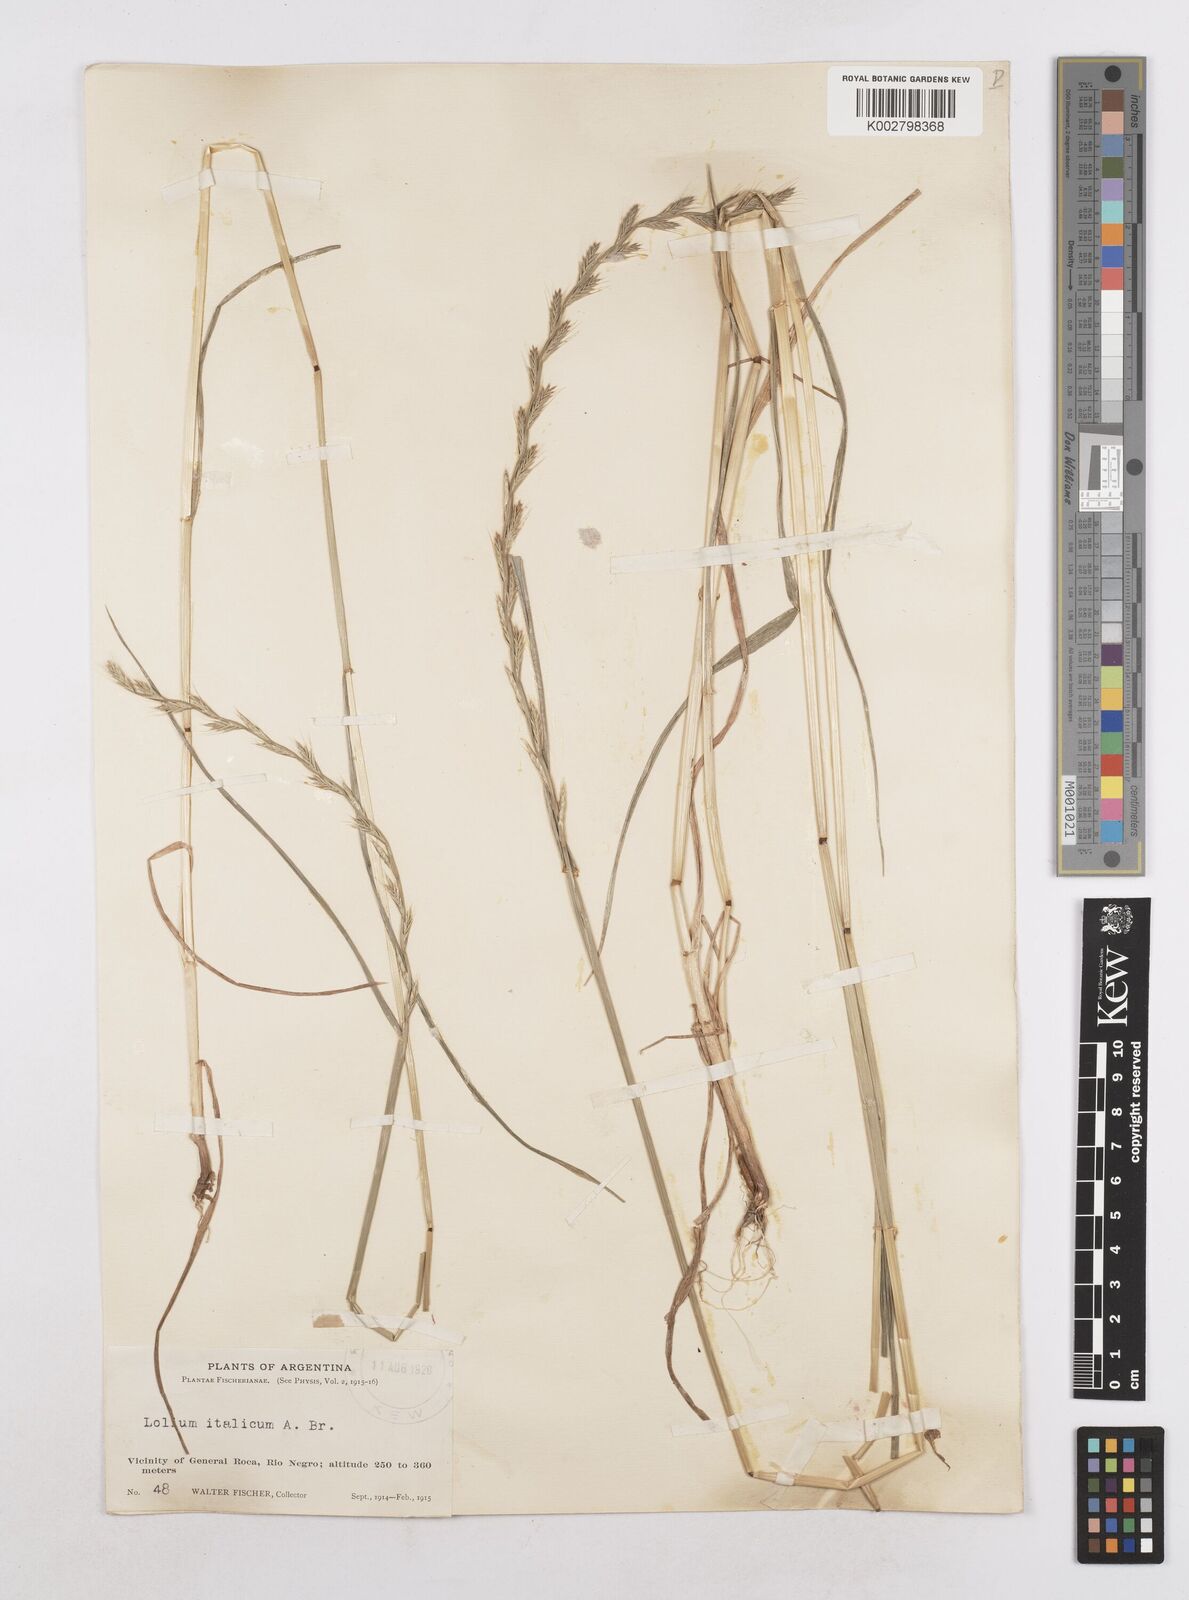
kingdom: Plantae
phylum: Tracheophyta
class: Liliopsida
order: Poales
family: Poaceae
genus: Lolium
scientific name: Lolium multiflorum
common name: Annual ryegrass
